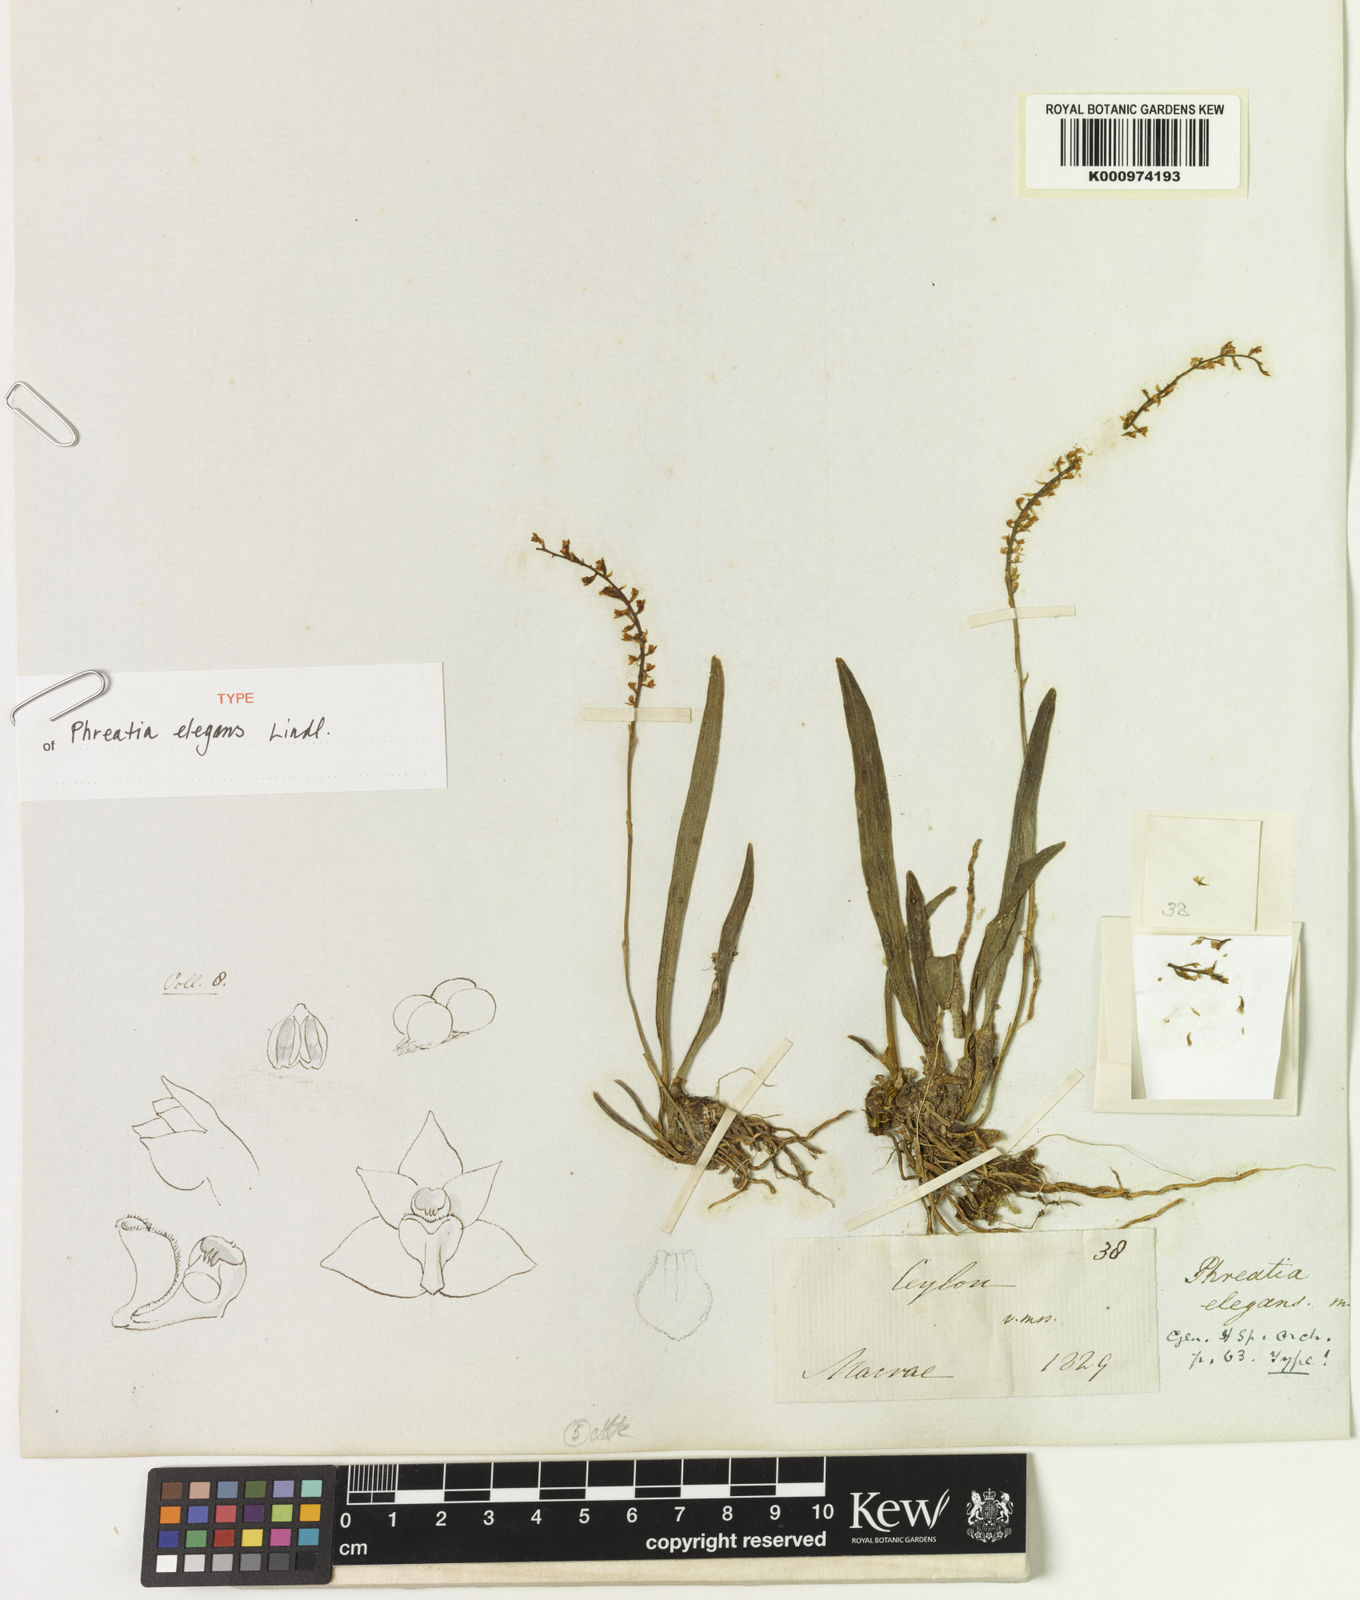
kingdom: Plantae
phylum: Tracheophyta
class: Liliopsida
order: Asparagales
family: Orchidaceae
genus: Phreatia
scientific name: Phreatia elegans
